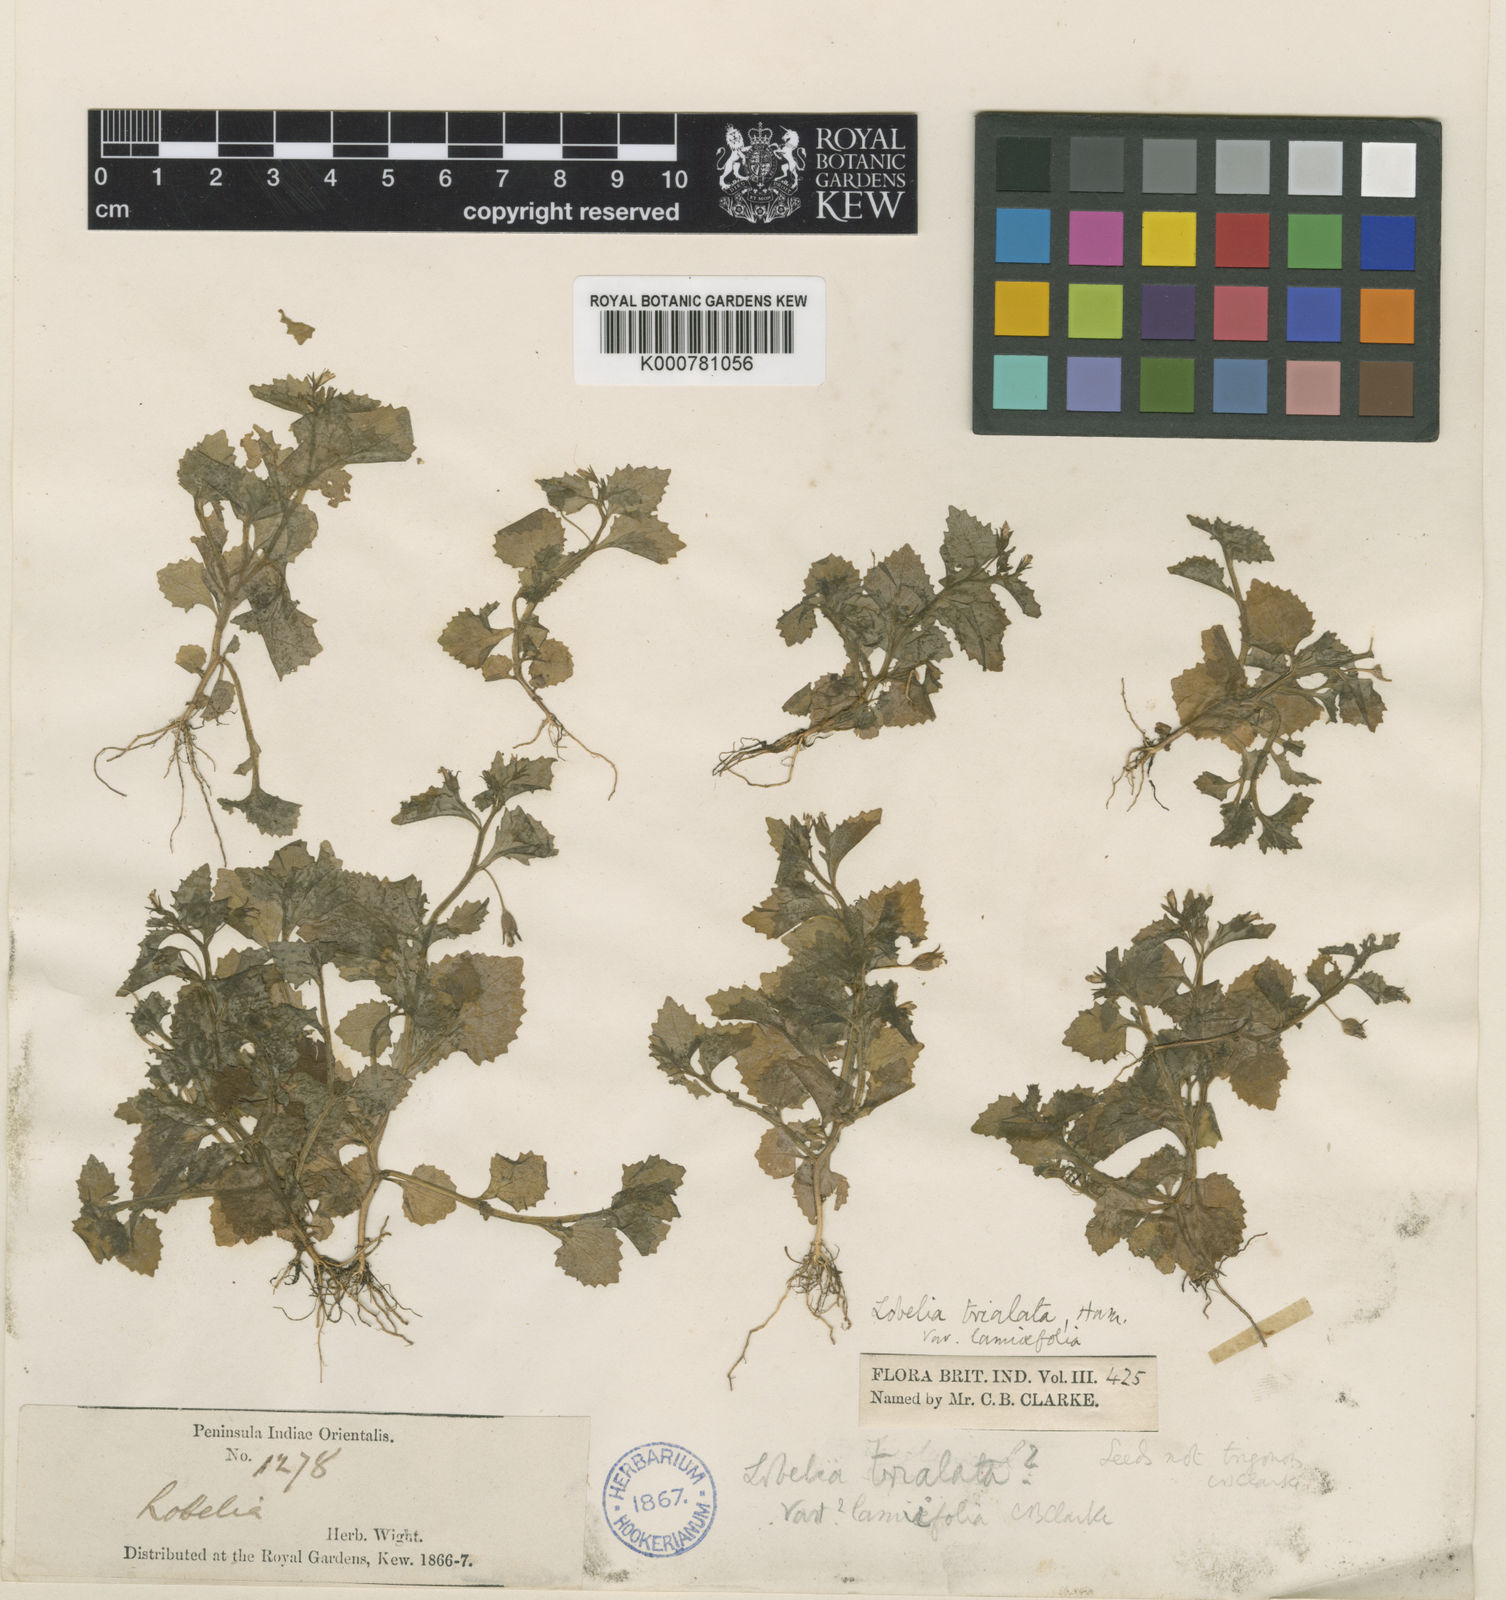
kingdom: Plantae
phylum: Tracheophyta
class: Magnoliopsida
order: Asterales
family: Campanulaceae
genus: Lobelia
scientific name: Lobelia heyneana
